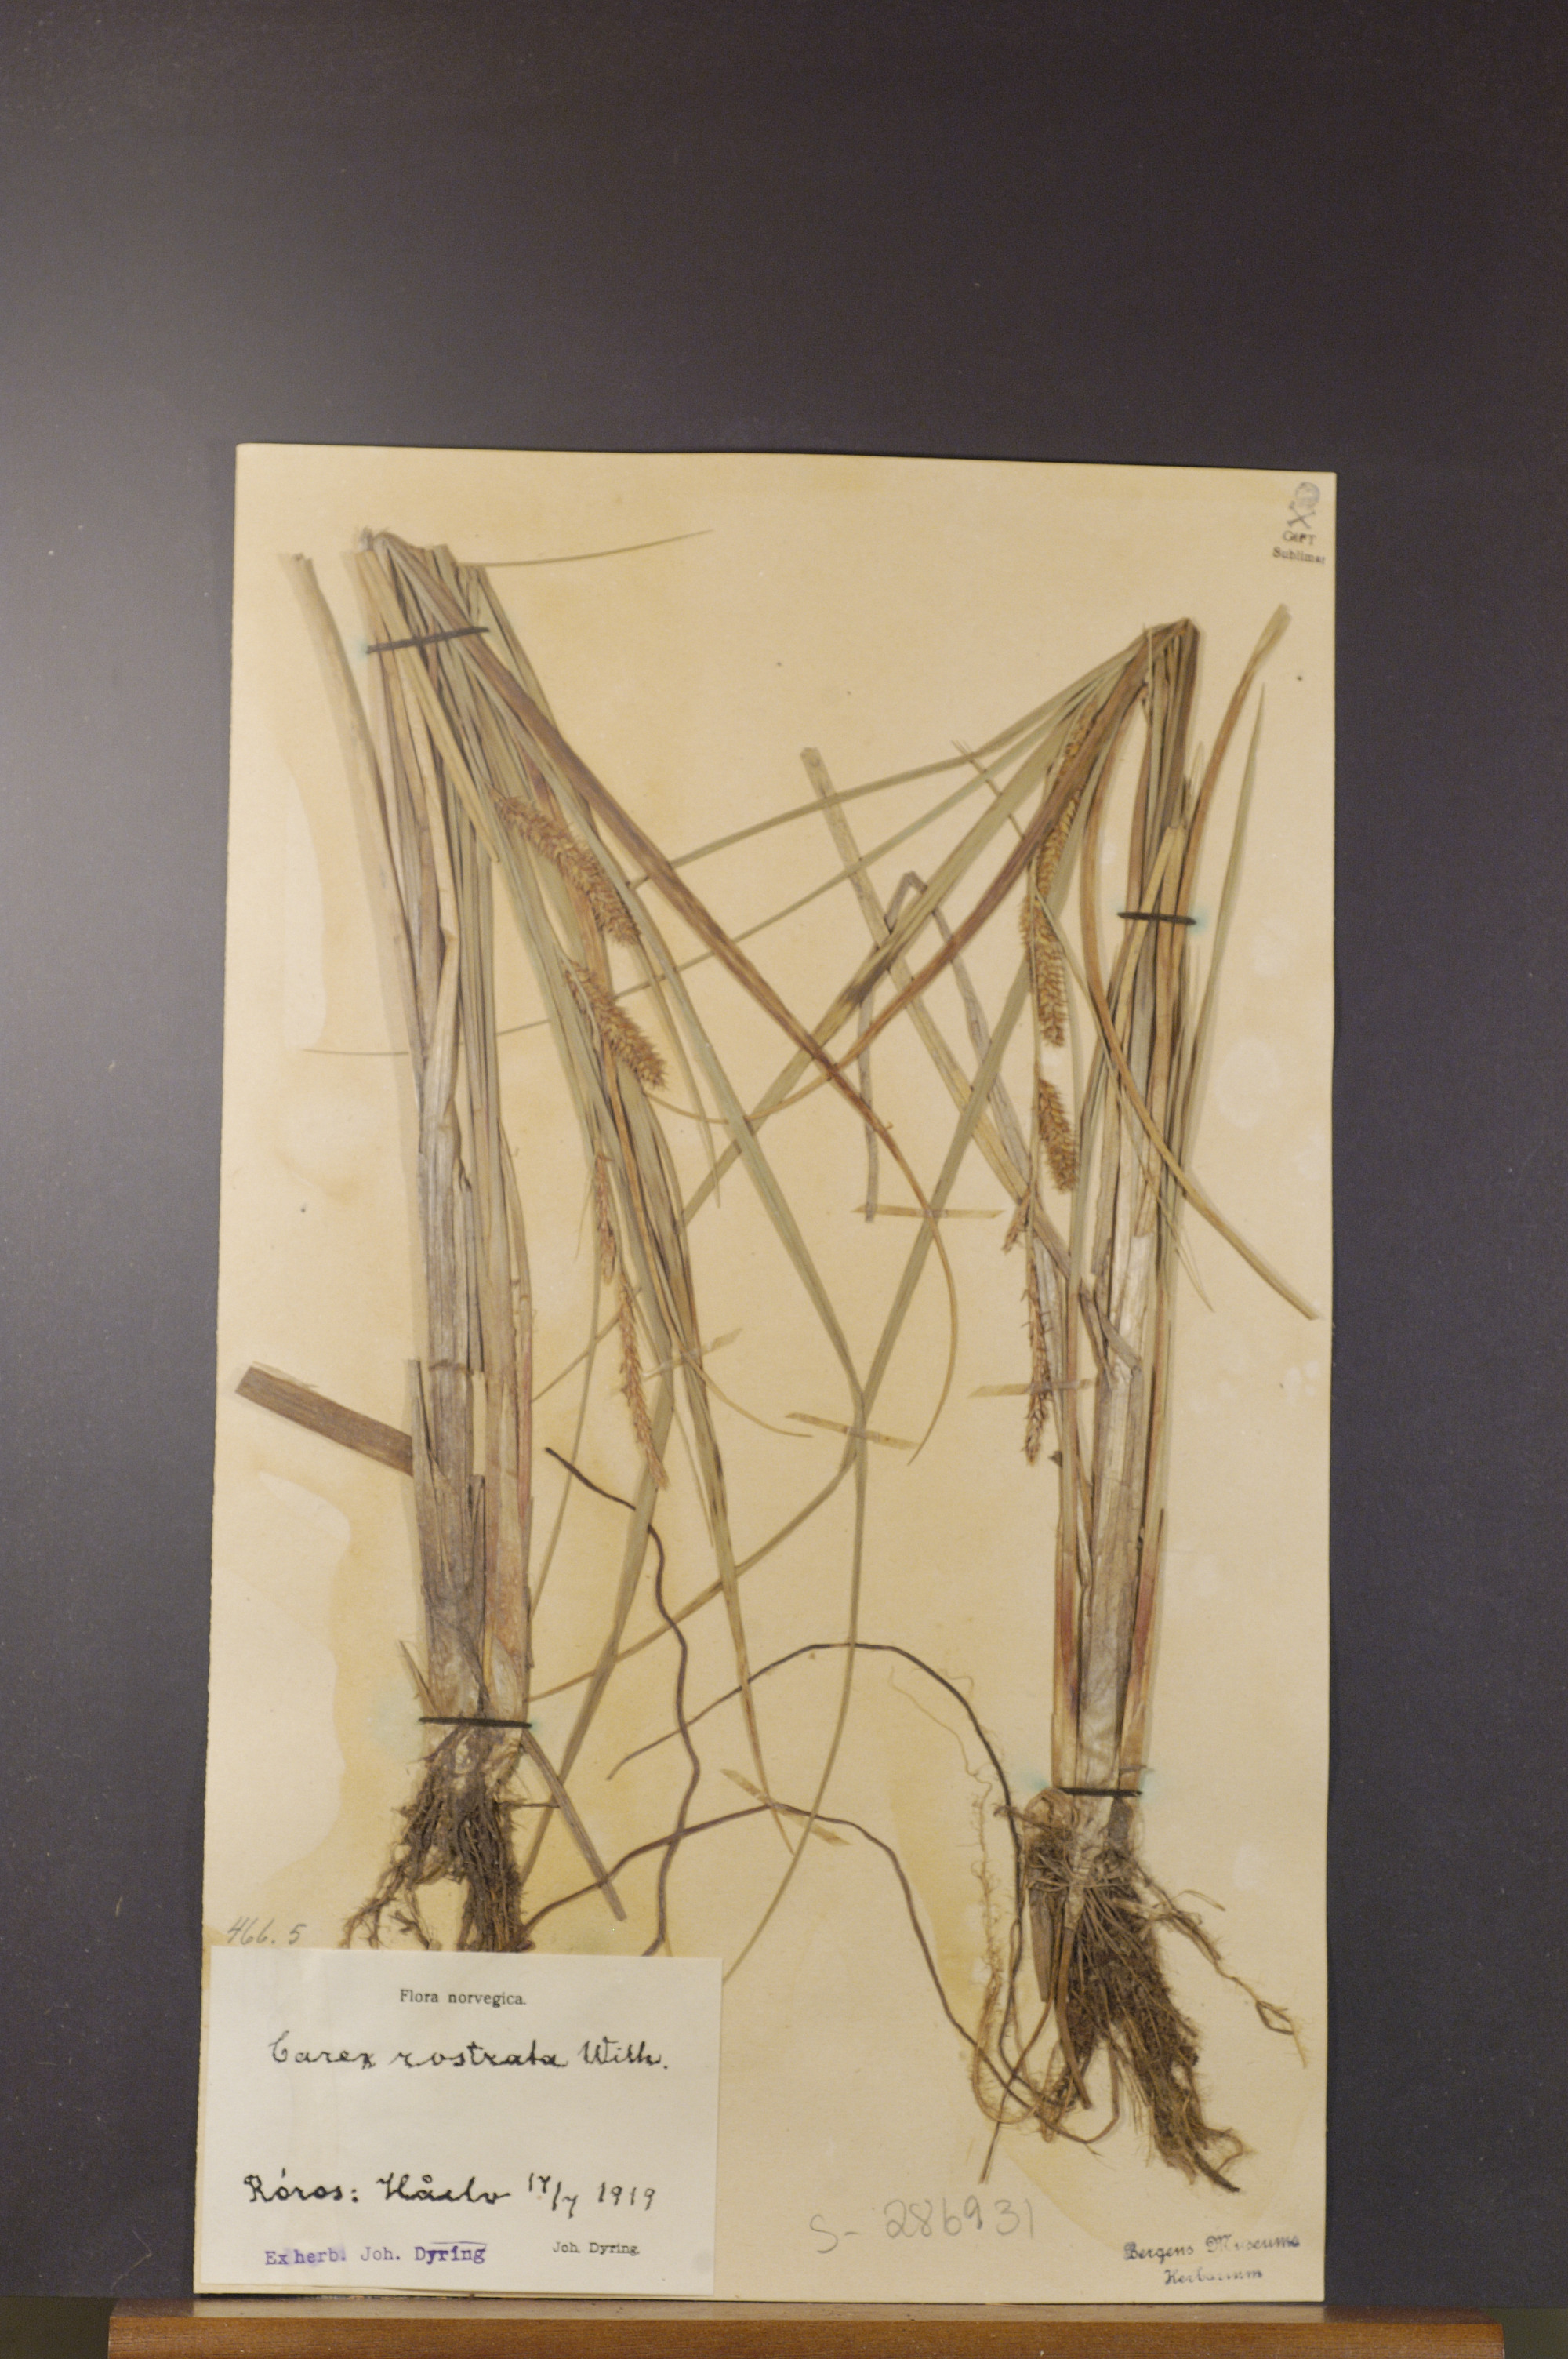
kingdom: Plantae
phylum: Tracheophyta
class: Liliopsida
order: Poales
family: Cyperaceae
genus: Carex
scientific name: Carex rostrata
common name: Bottle sedge
